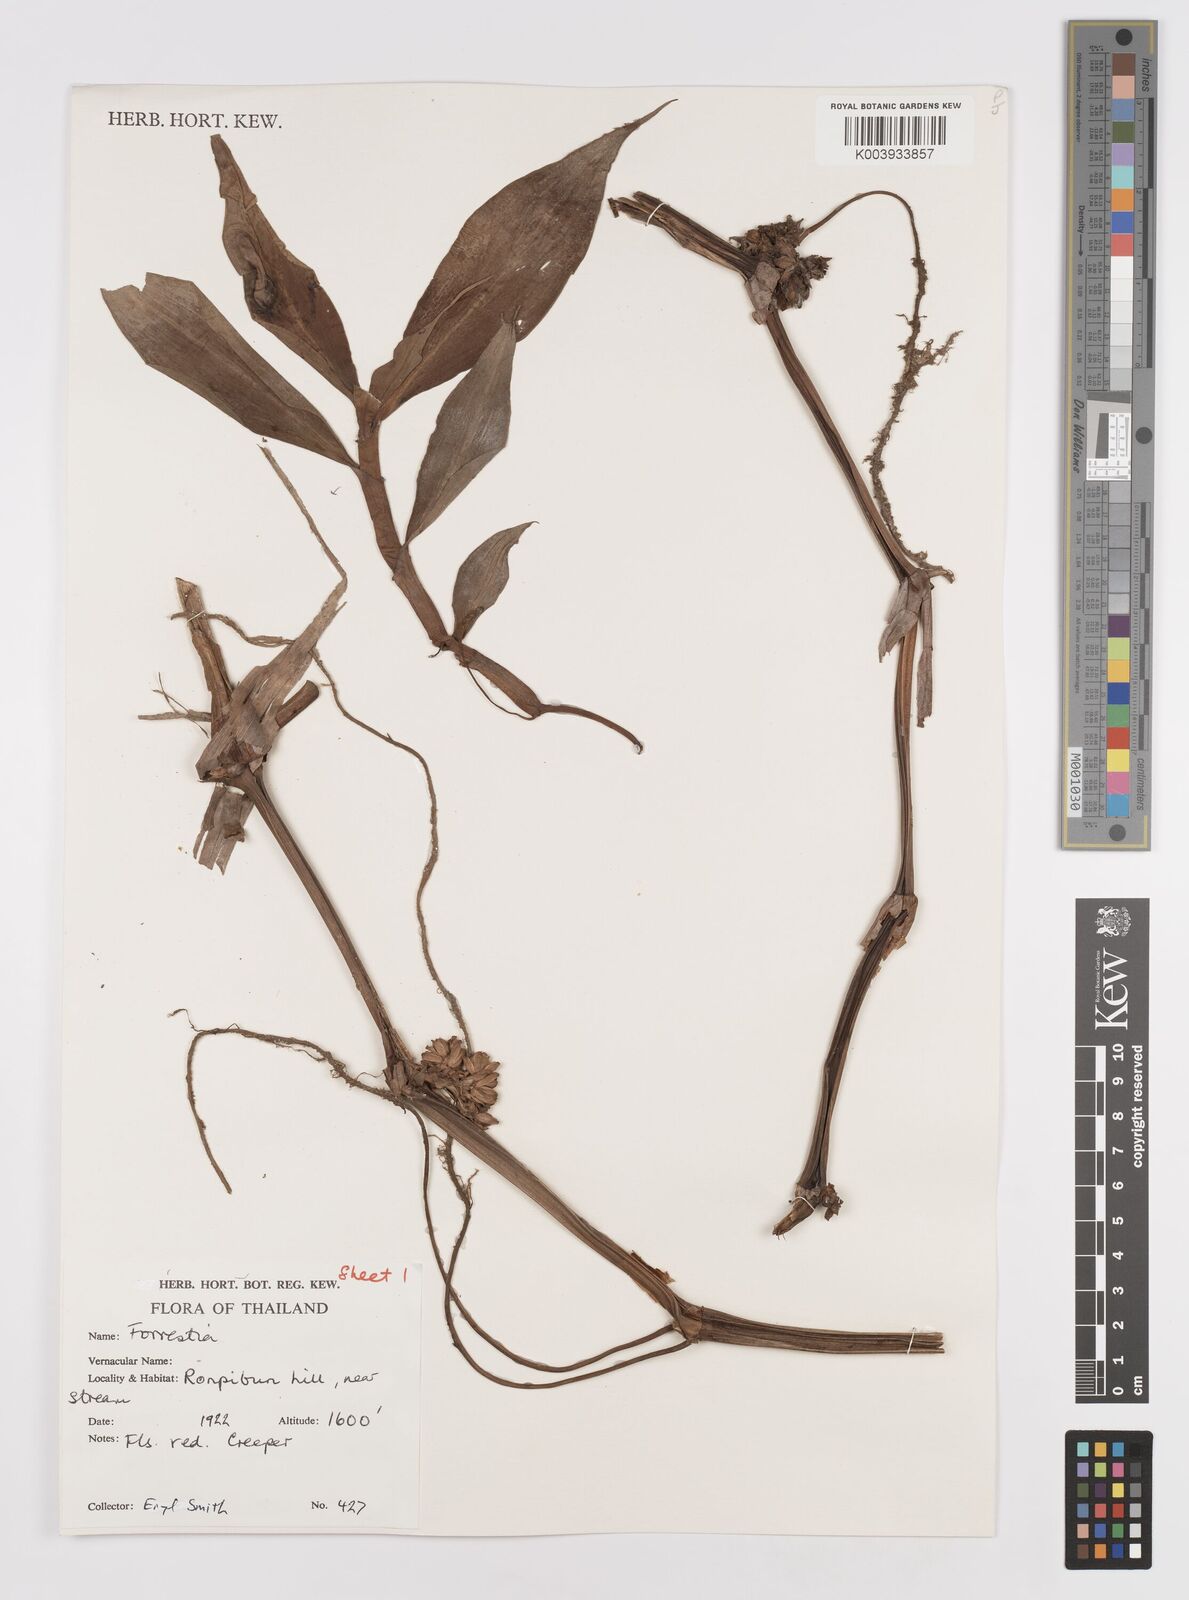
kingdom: Plantae
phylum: Tracheophyta
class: Liliopsida
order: Commelinales
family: Commelinaceae
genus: Amischotolype
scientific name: Amischotolype marginata
